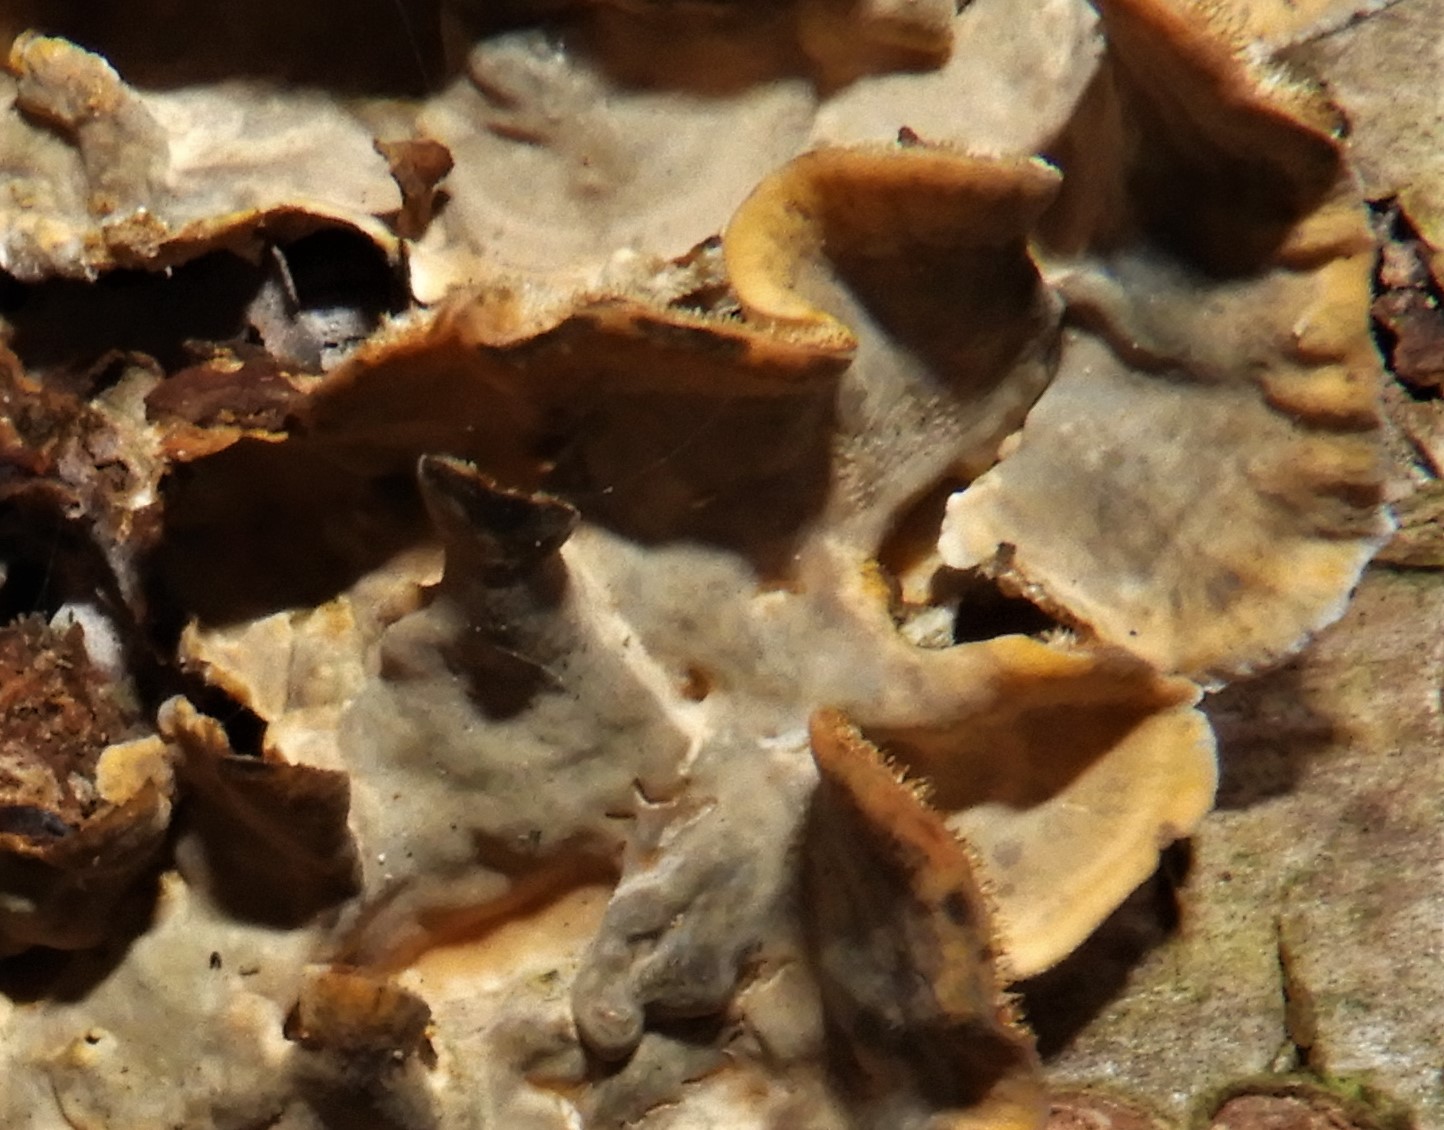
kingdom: Fungi
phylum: Basidiomycota
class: Agaricomycetes
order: Russulales
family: Stereaceae
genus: Stereum
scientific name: Stereum hirsutum
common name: håret lædersvamp
